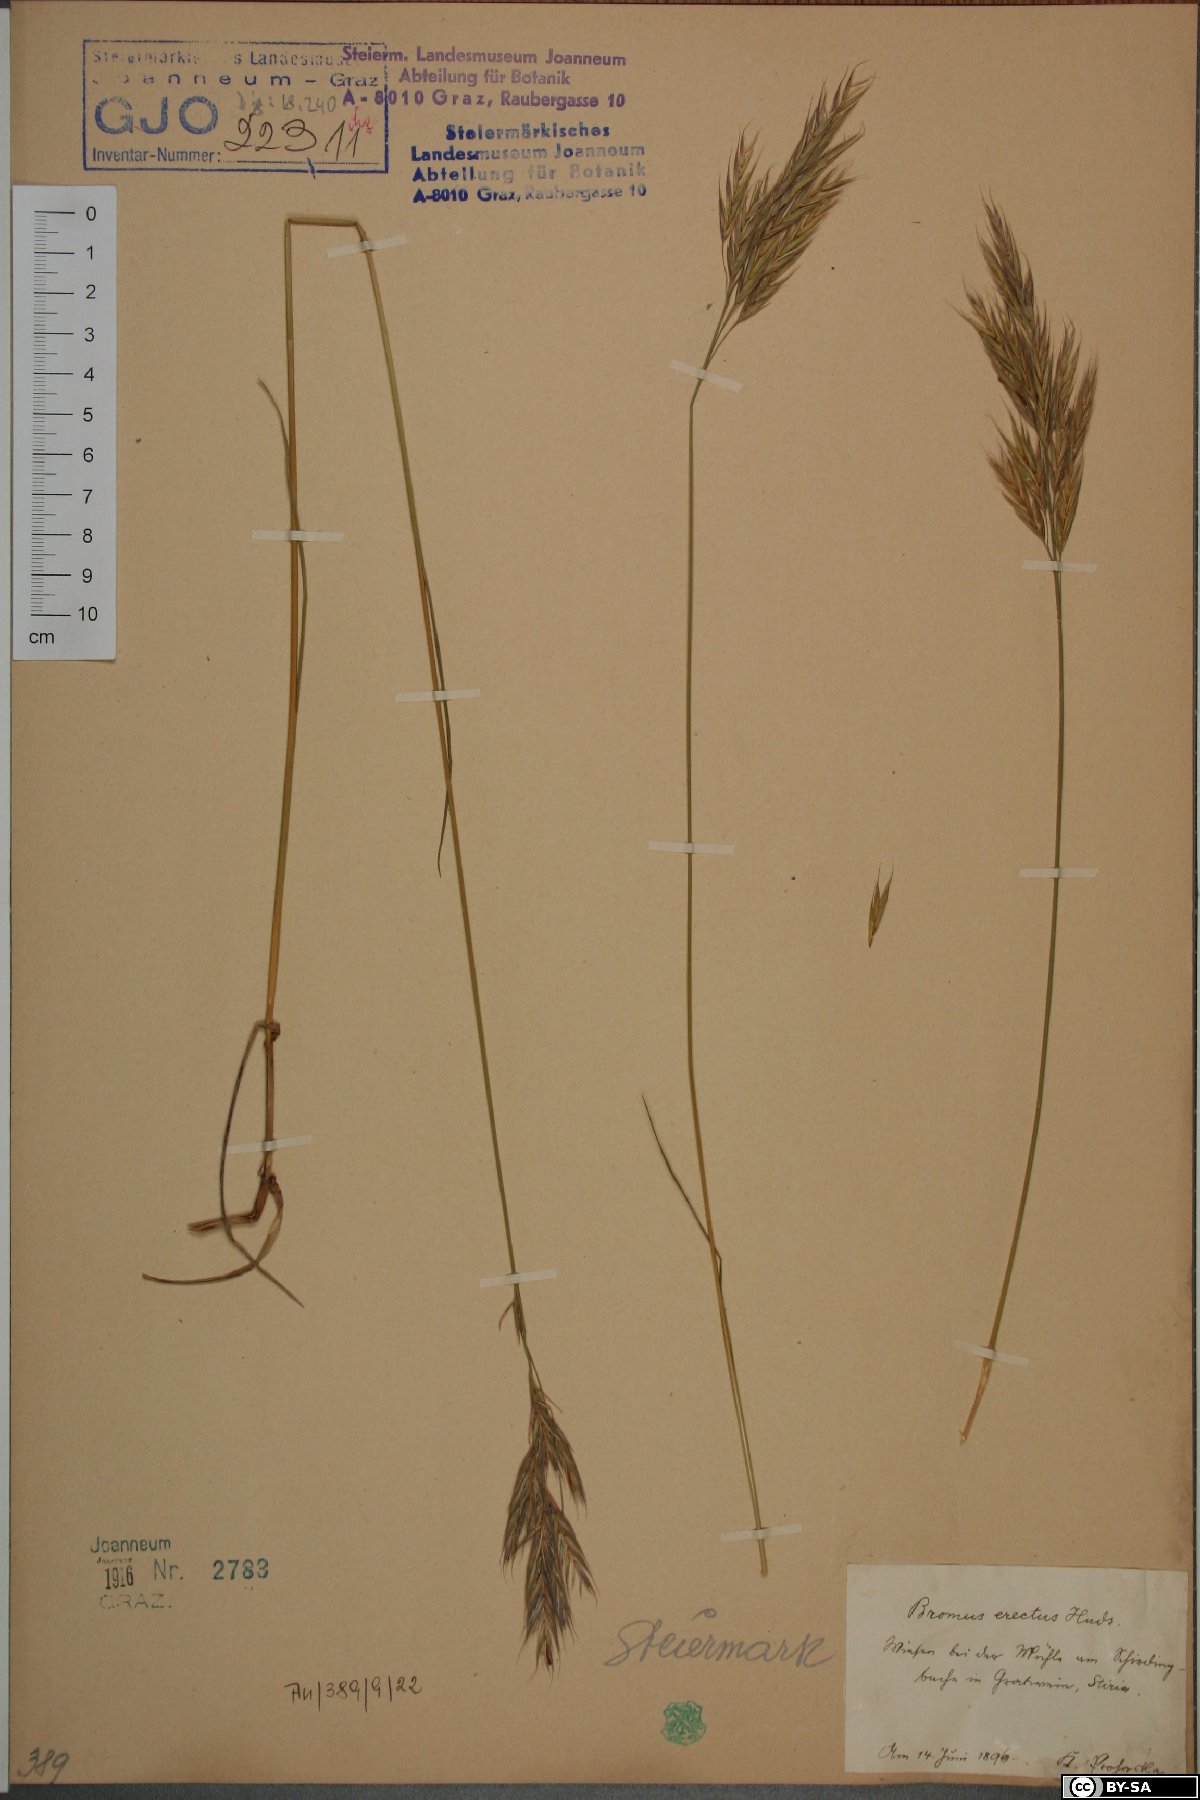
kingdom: Plantae
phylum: Tracheophyta
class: Liliopsida
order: Poales
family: Poaceae
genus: Bromus
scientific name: Bromus erectus
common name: Erect brome
